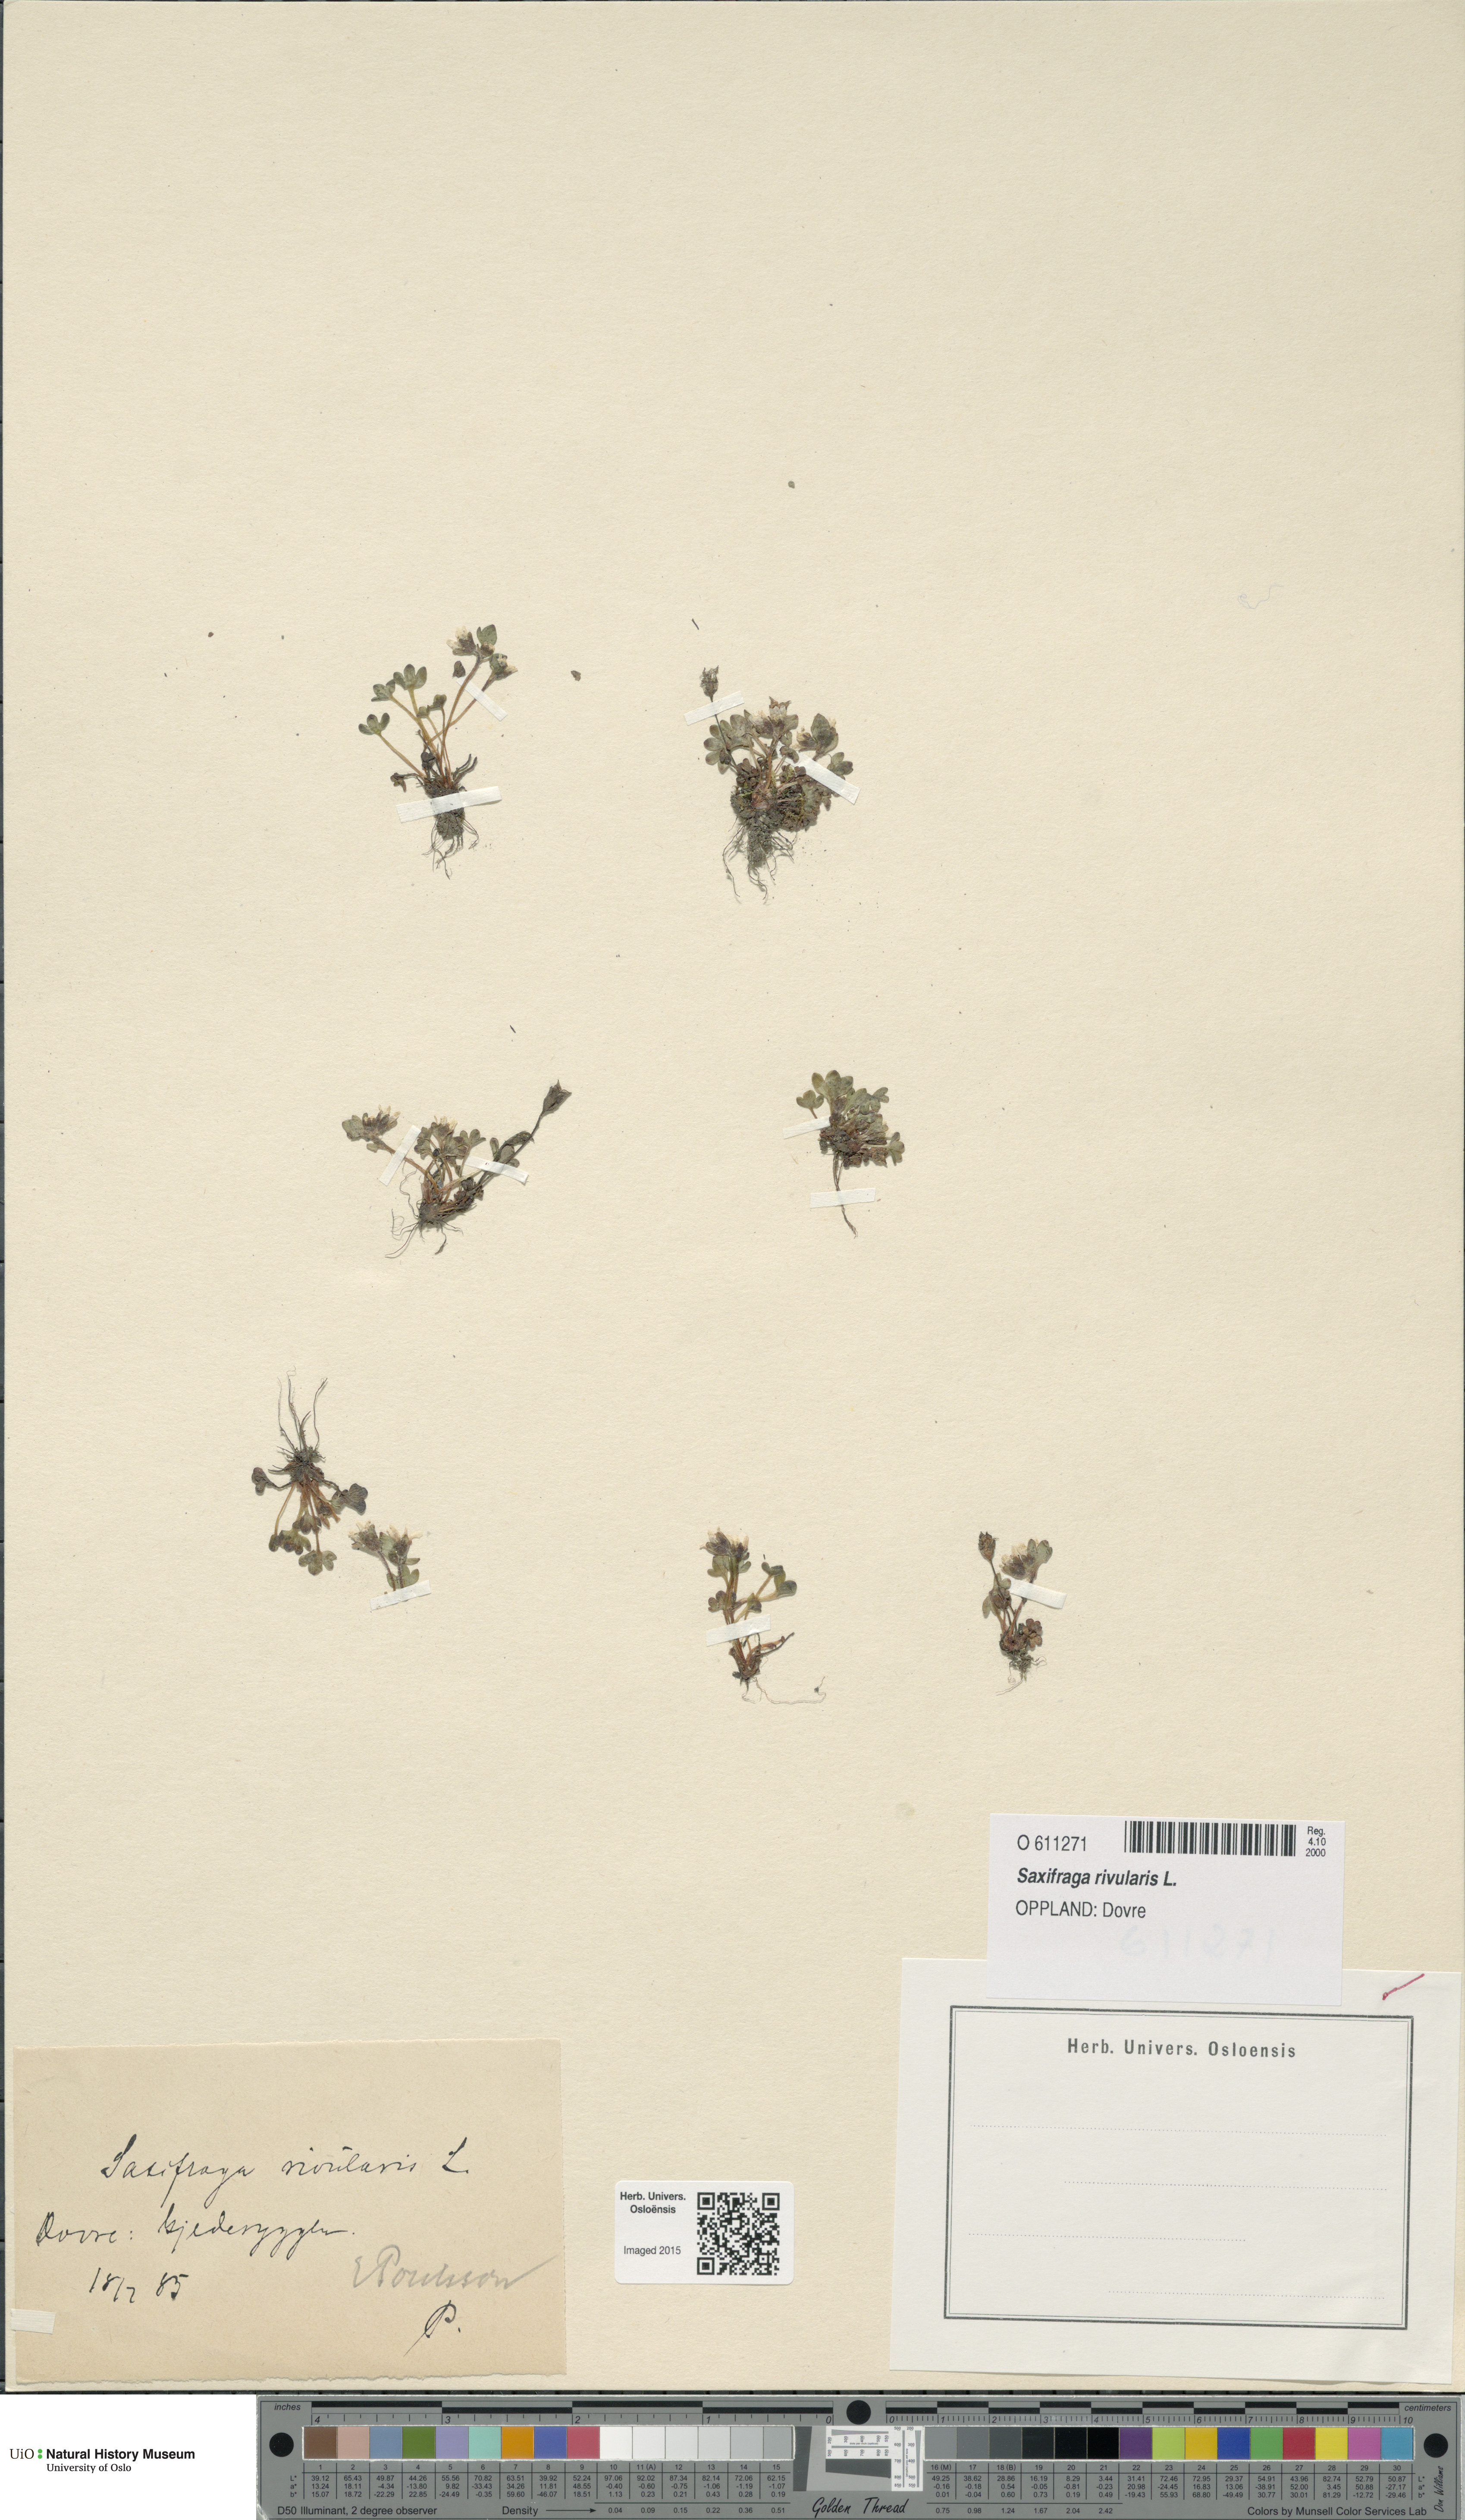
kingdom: Plantae
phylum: Tracheophyta
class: Magnoliopsida
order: Saxifragales
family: Saxifragaceae
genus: Saxifraga
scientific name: Saxifraga rivularis
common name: Highland saxifrage
